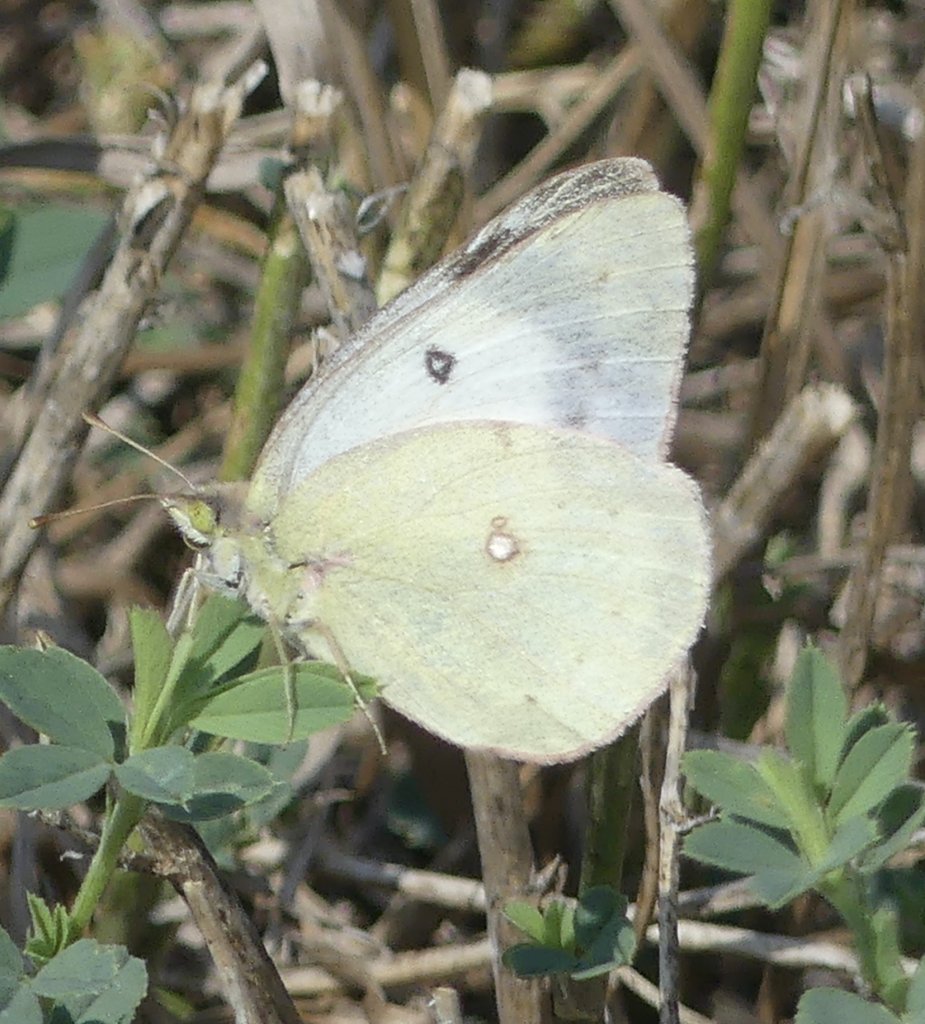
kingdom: Animalia
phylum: Arthropoda
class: Insecta
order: Lepidoptera
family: Pieridae
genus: Colias
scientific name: Colias philodice
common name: Clouded Sulphur
